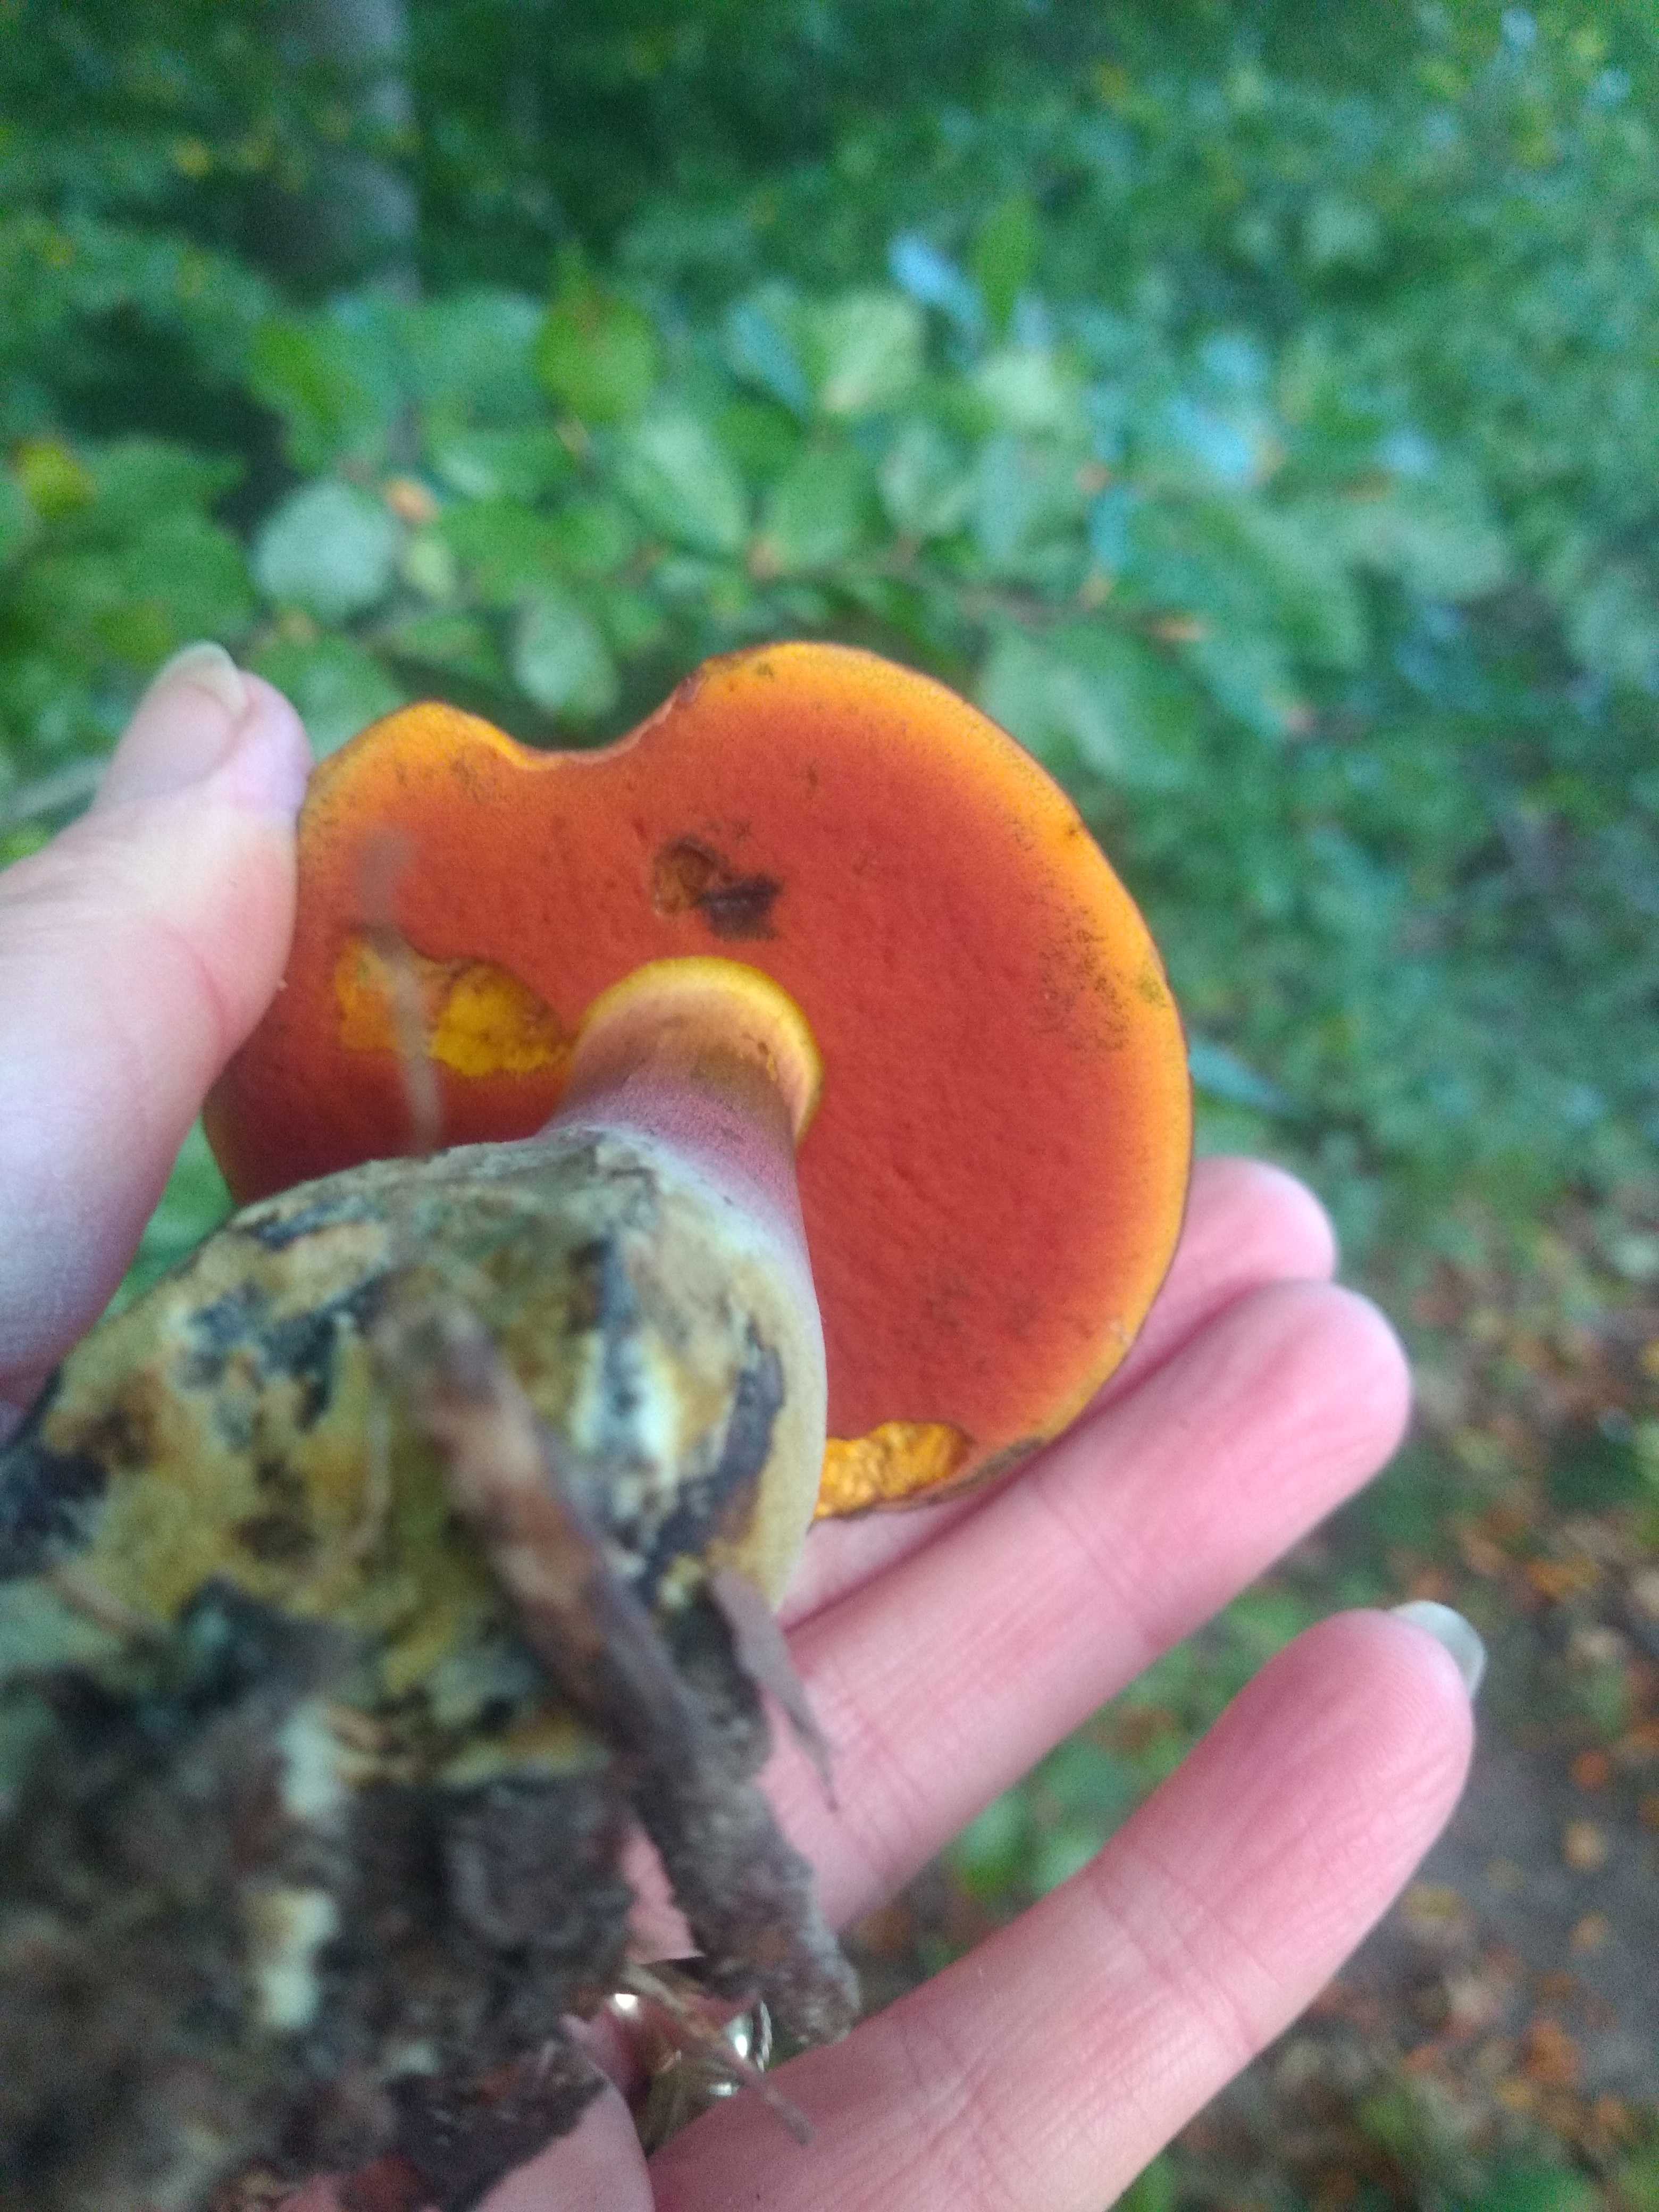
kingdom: Fungi
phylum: Basidiomycota
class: Agaricomycetes
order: Boletales
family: Boletaceae
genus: Neoboletus
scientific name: Neoboletus erythropus
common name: punktstokket indigorørhat
